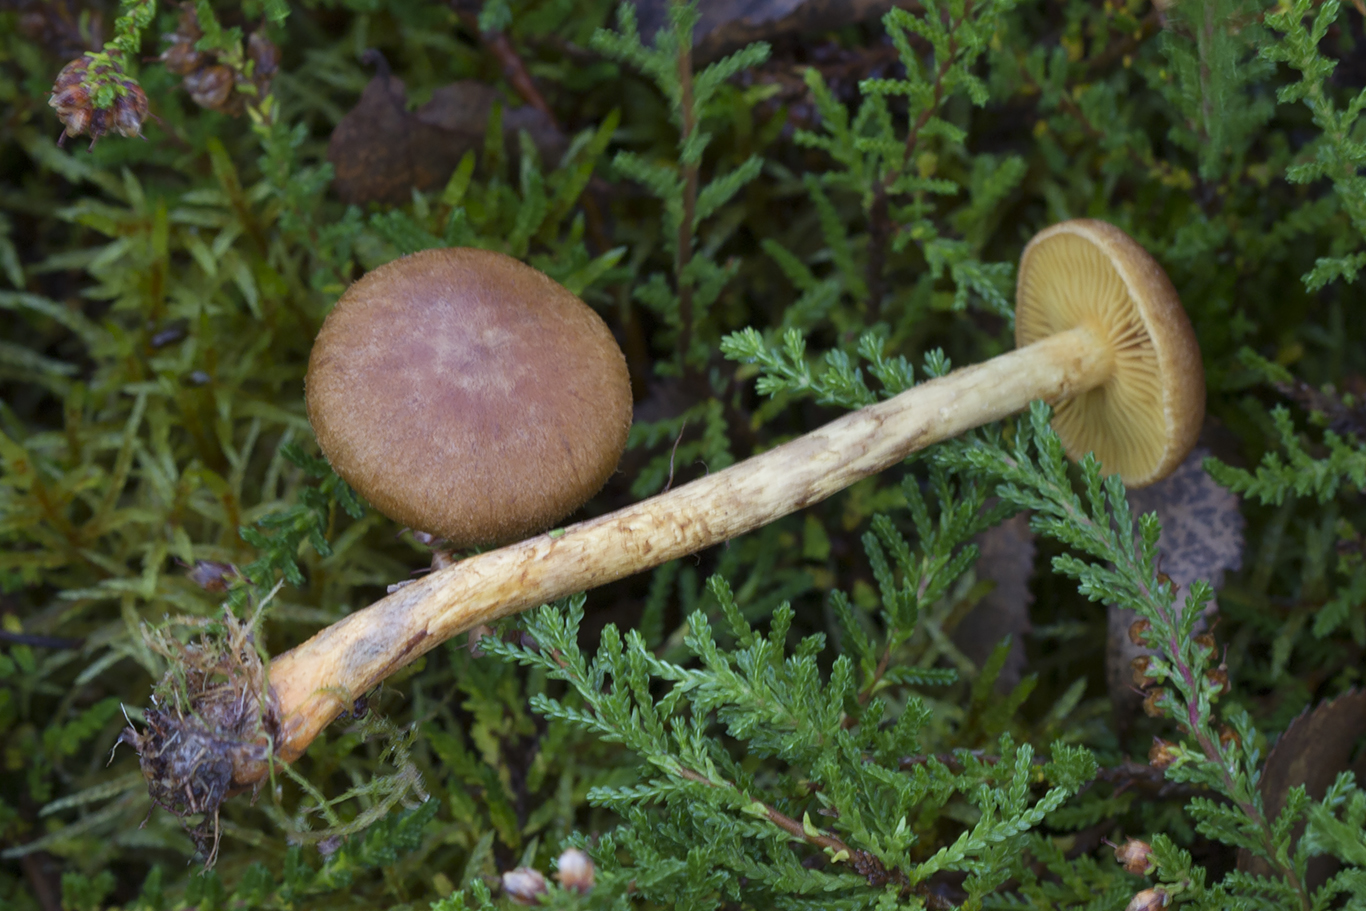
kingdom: Fungi
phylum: Basidiomycota
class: Agaricomycetes
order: Agaricales
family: Cortinariaceae
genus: Cortinarius
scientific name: Cortinarius bataillei
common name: orangefodet slørhat
